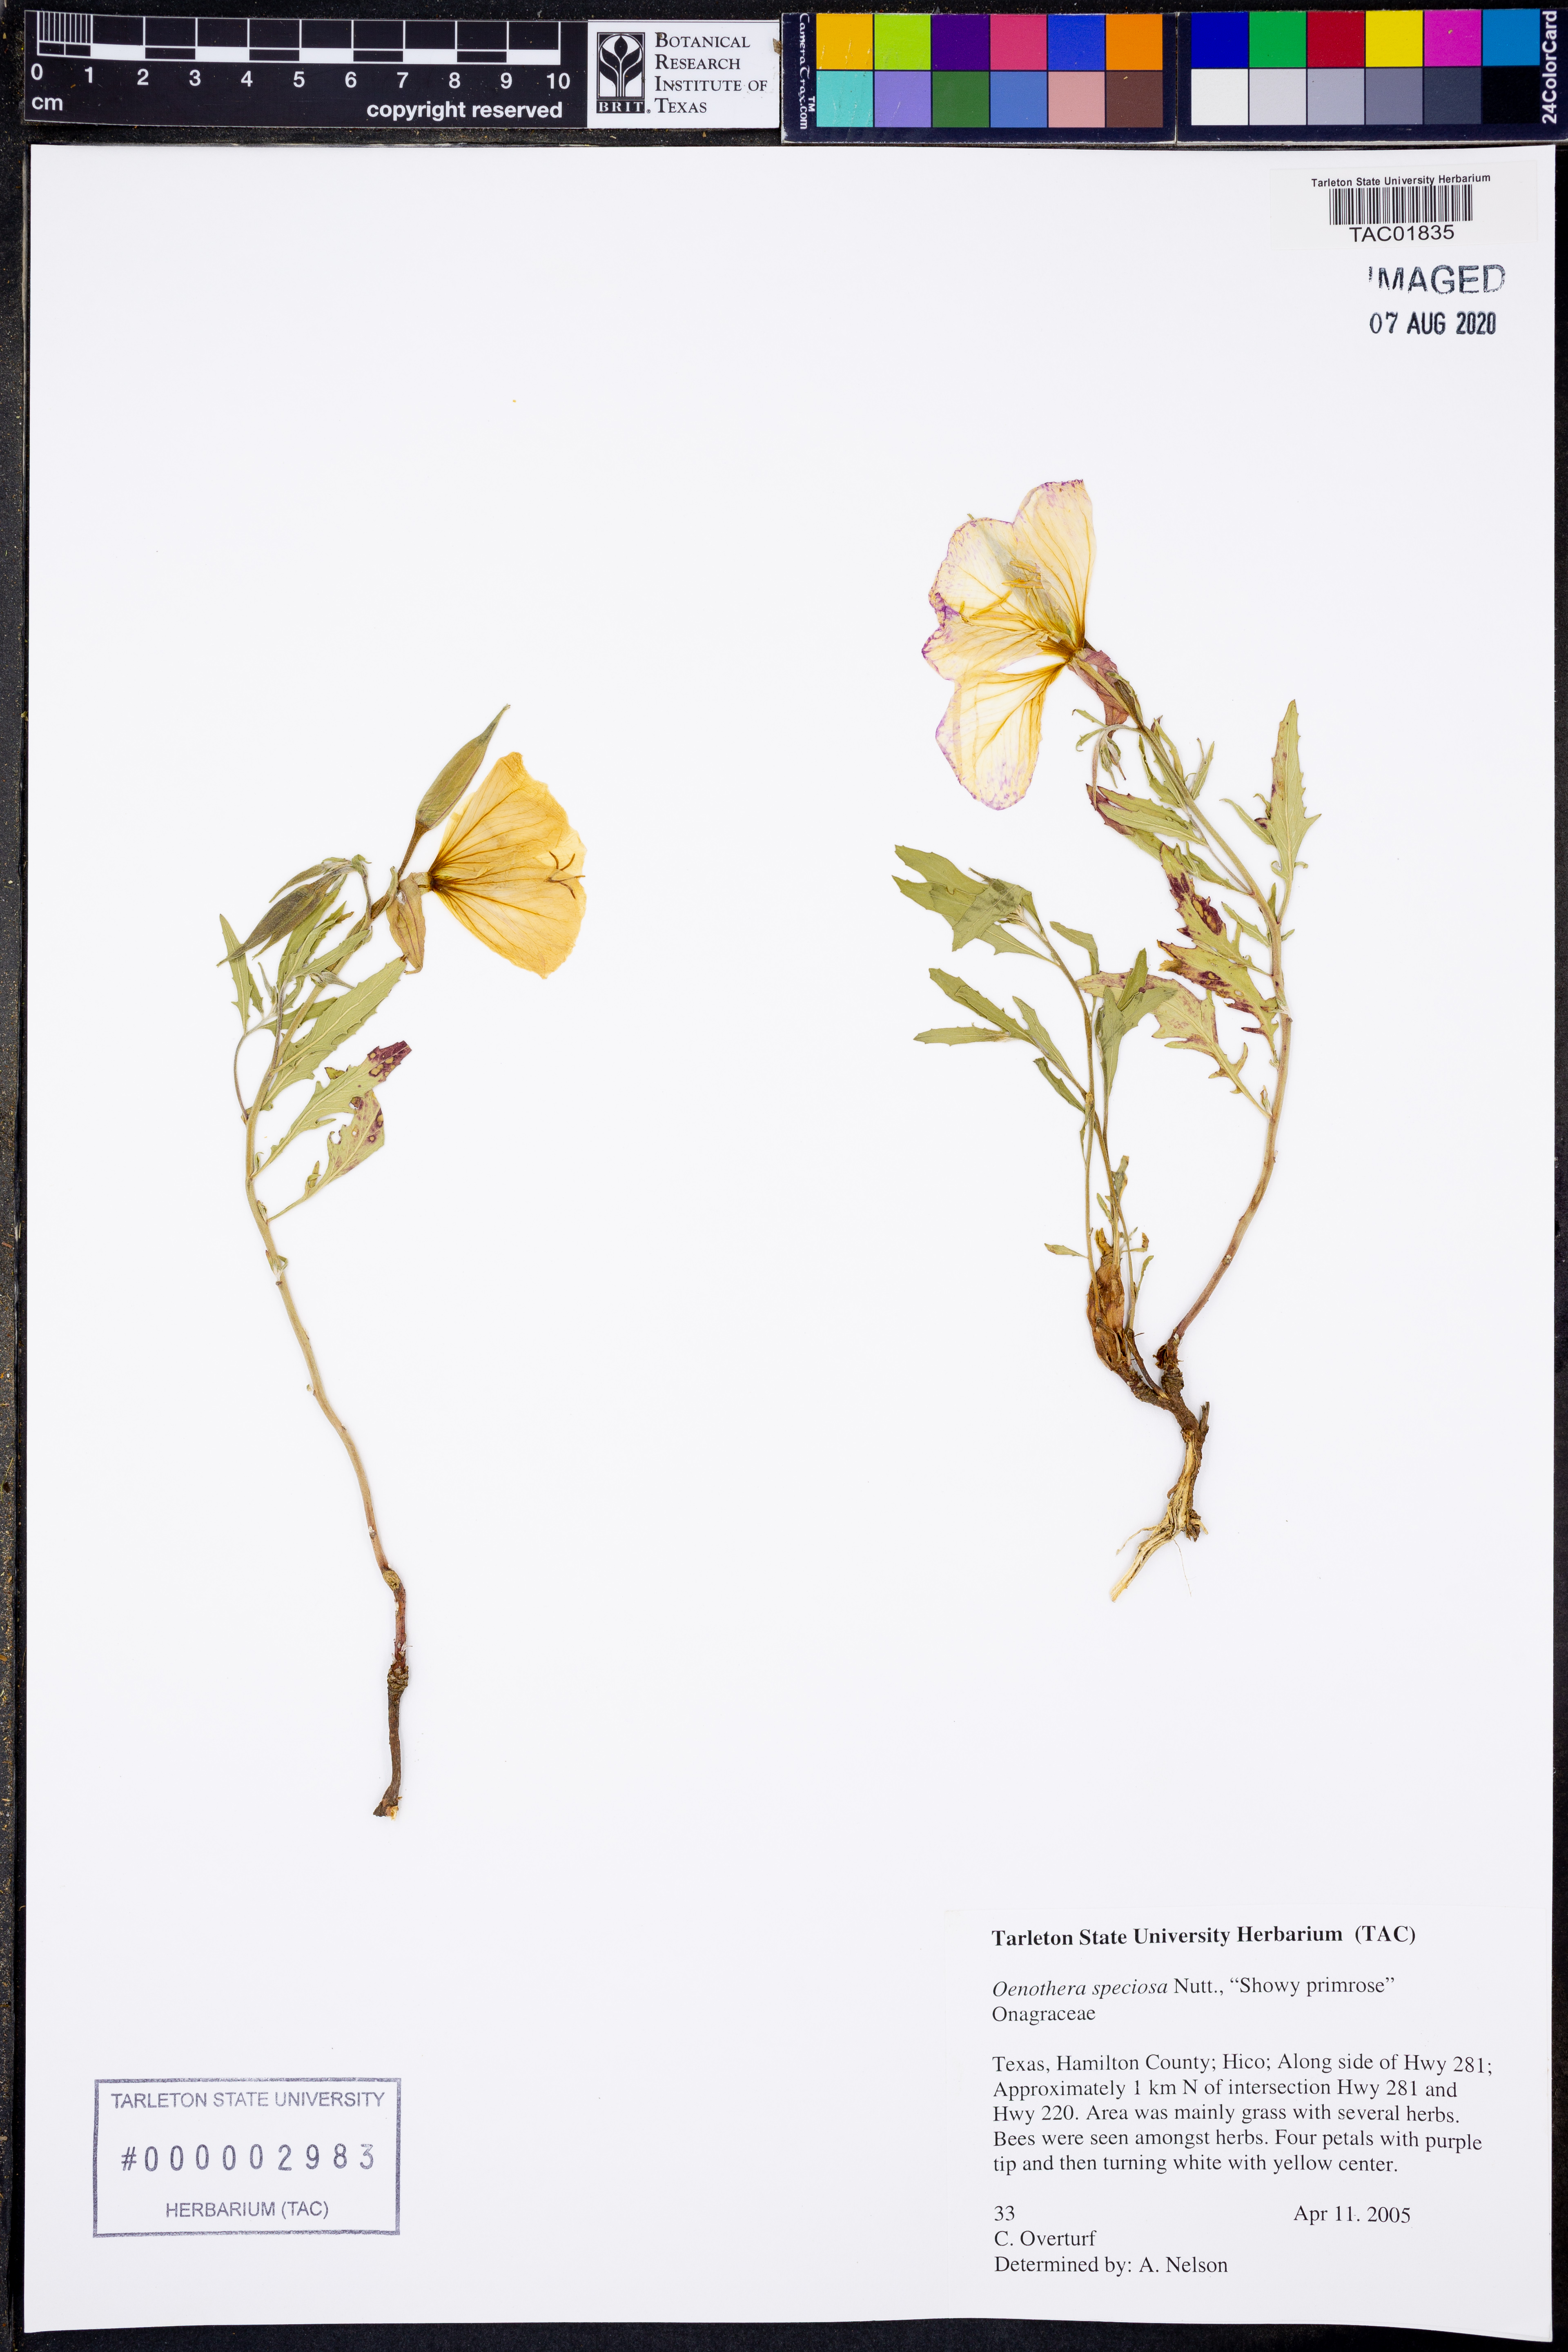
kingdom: Plantae
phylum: Tracheophyta
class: Magnoliopsida
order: Myrtales
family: Onagraceae
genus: Oenothera
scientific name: Oenothera speciosa
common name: White evening-primrose
